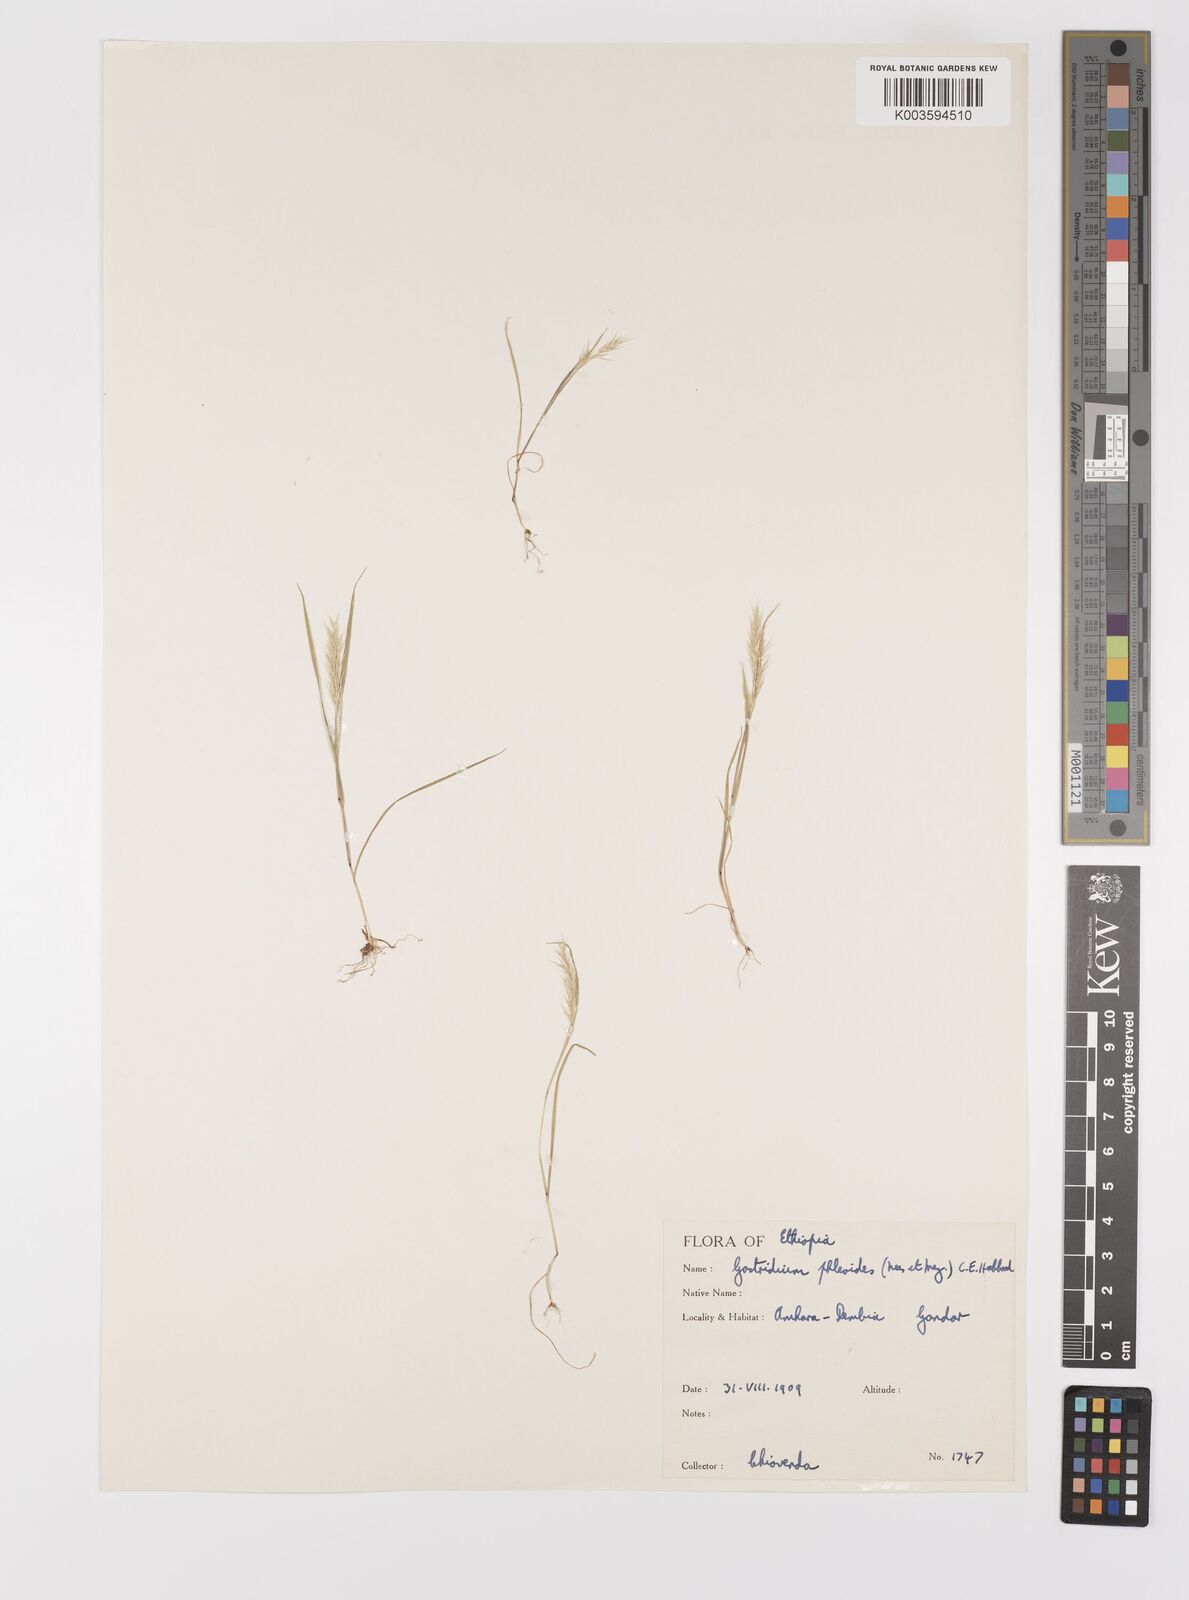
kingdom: Plantae
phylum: Tracheophyta
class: Liliopsida
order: Poales
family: Poaceae
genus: Gastridium
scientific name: Gastridium phleoides
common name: Nit grass
